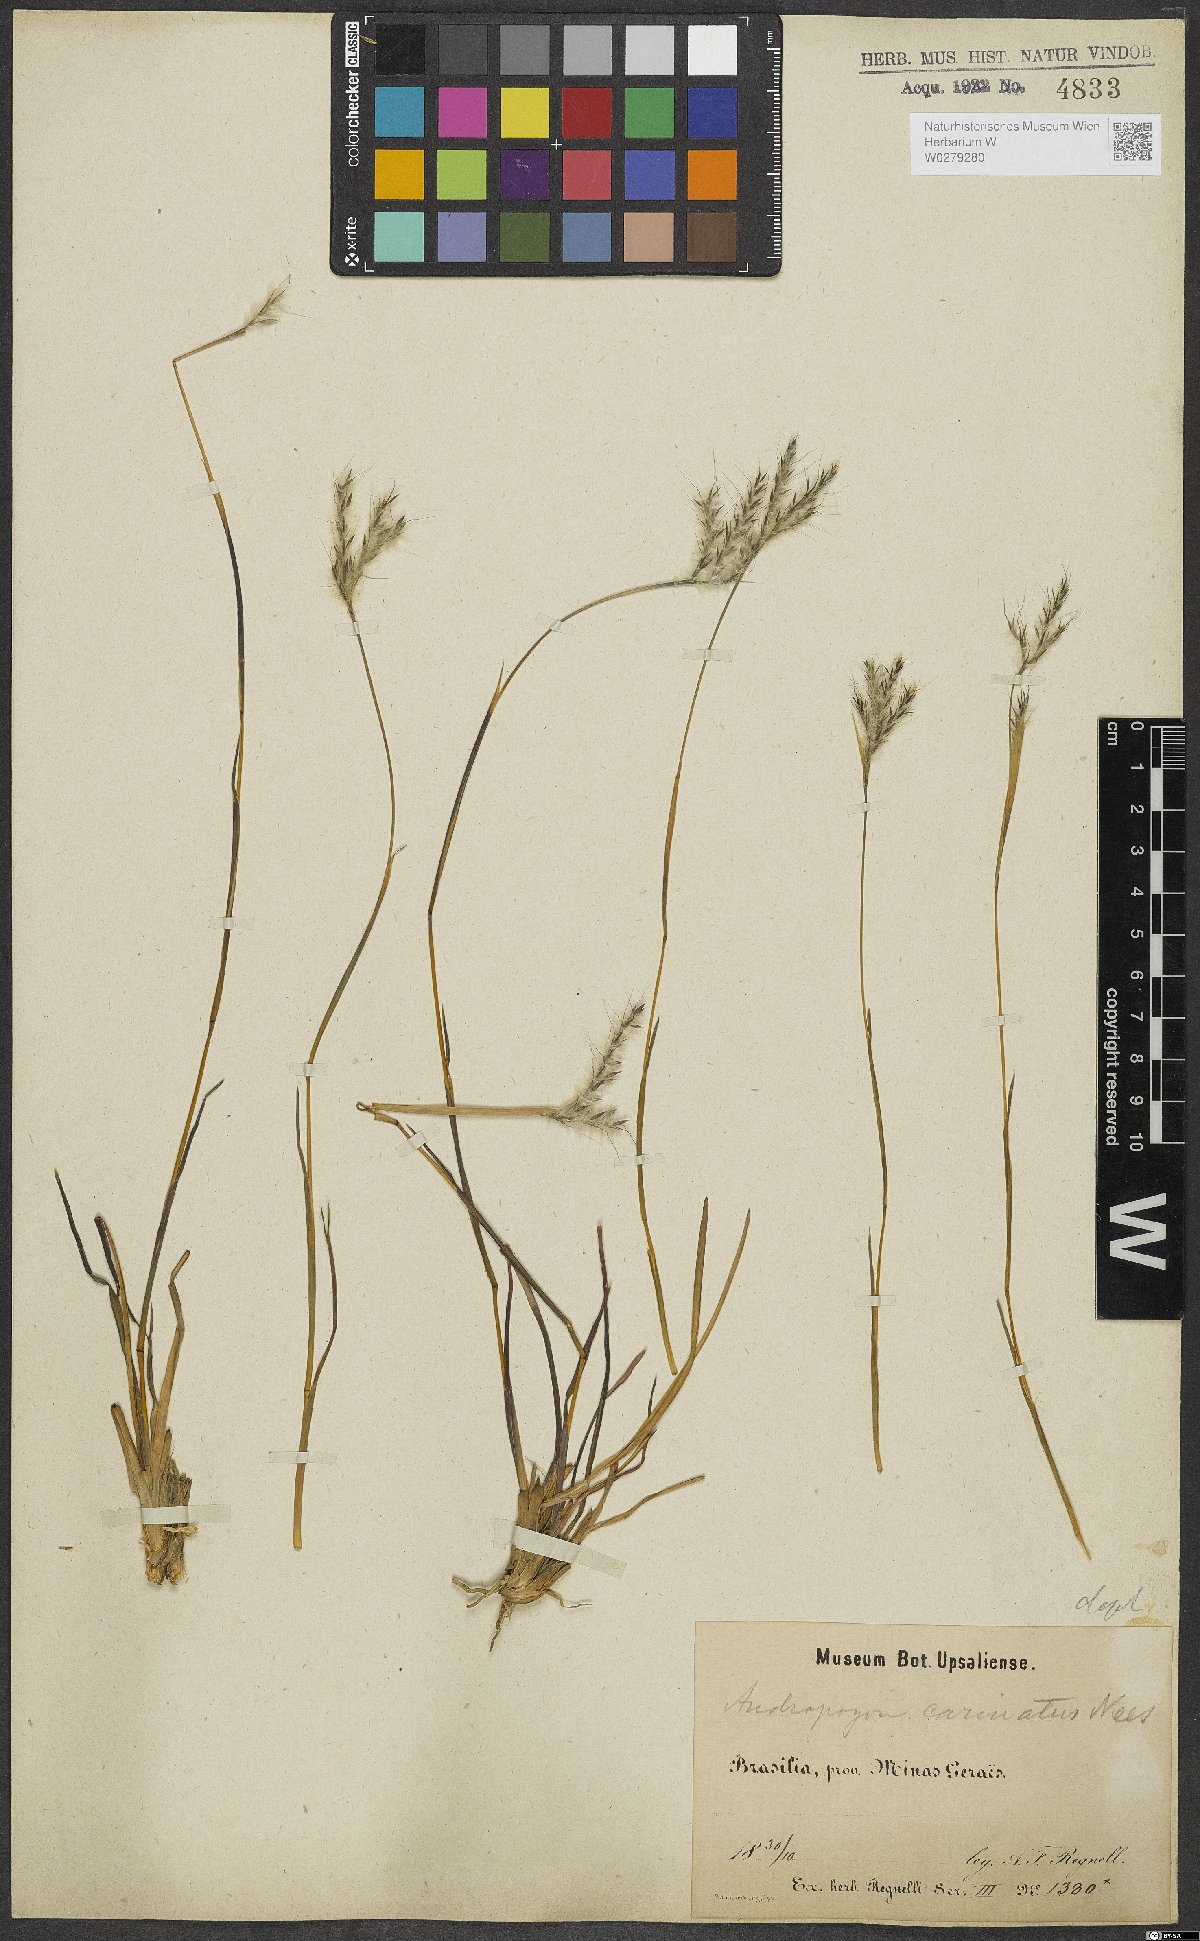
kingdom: Plantae
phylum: Tracheophyta
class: Liliopsida
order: Poales
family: Poaceae
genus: Andropogon
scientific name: Andropogon carinatus
